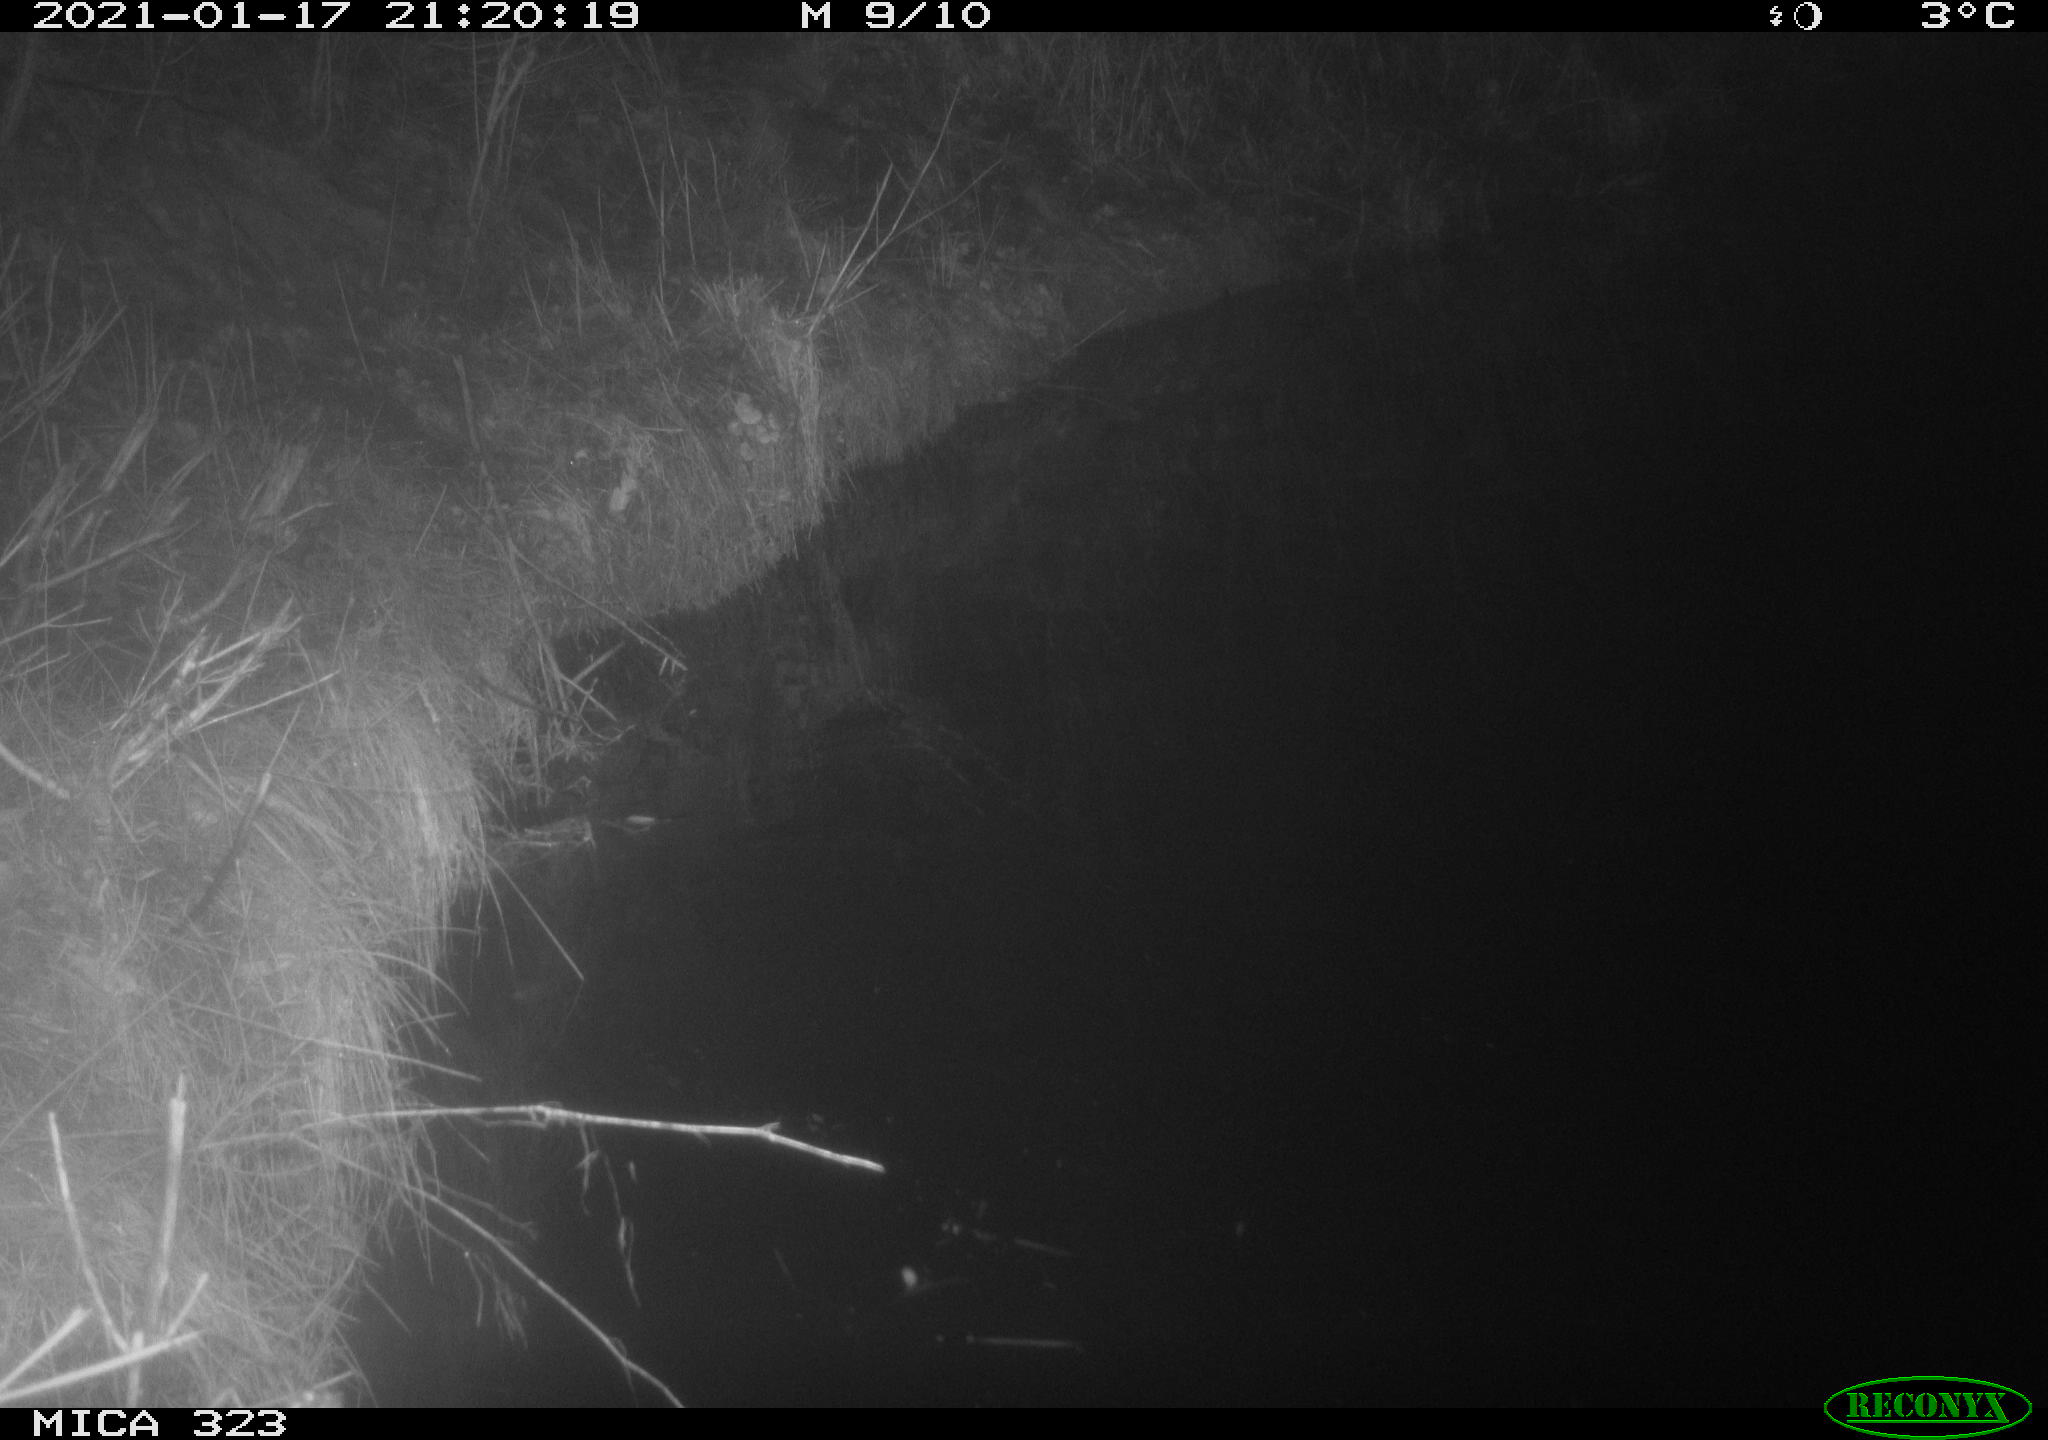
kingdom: Animalia
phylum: Chordata
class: Mammalia
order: Rodentia
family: Myocastoridae
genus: Myocastor
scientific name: Myocastor coypus
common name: Coypu
